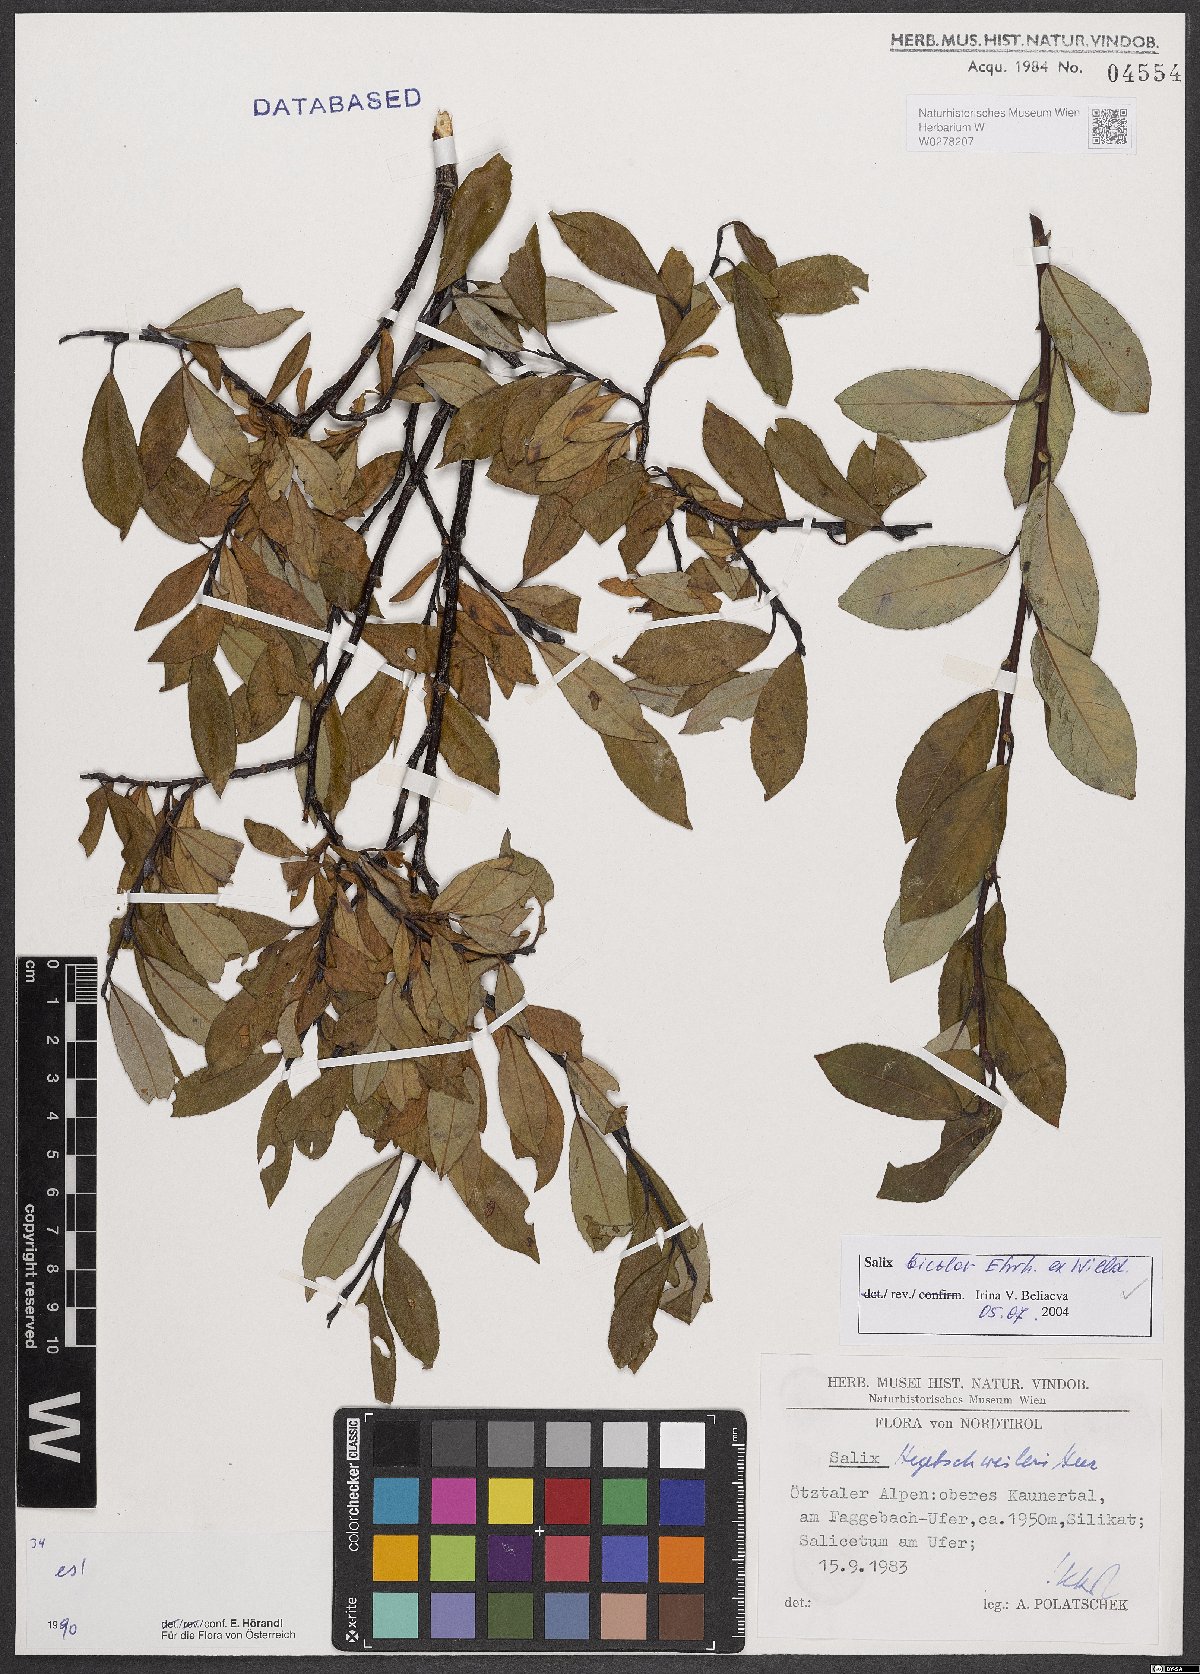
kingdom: Plantae
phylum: Tracheophyta
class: Magnoliopsida
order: Malpighiales
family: Salicaceae
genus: Salix
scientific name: Salix bicolor
